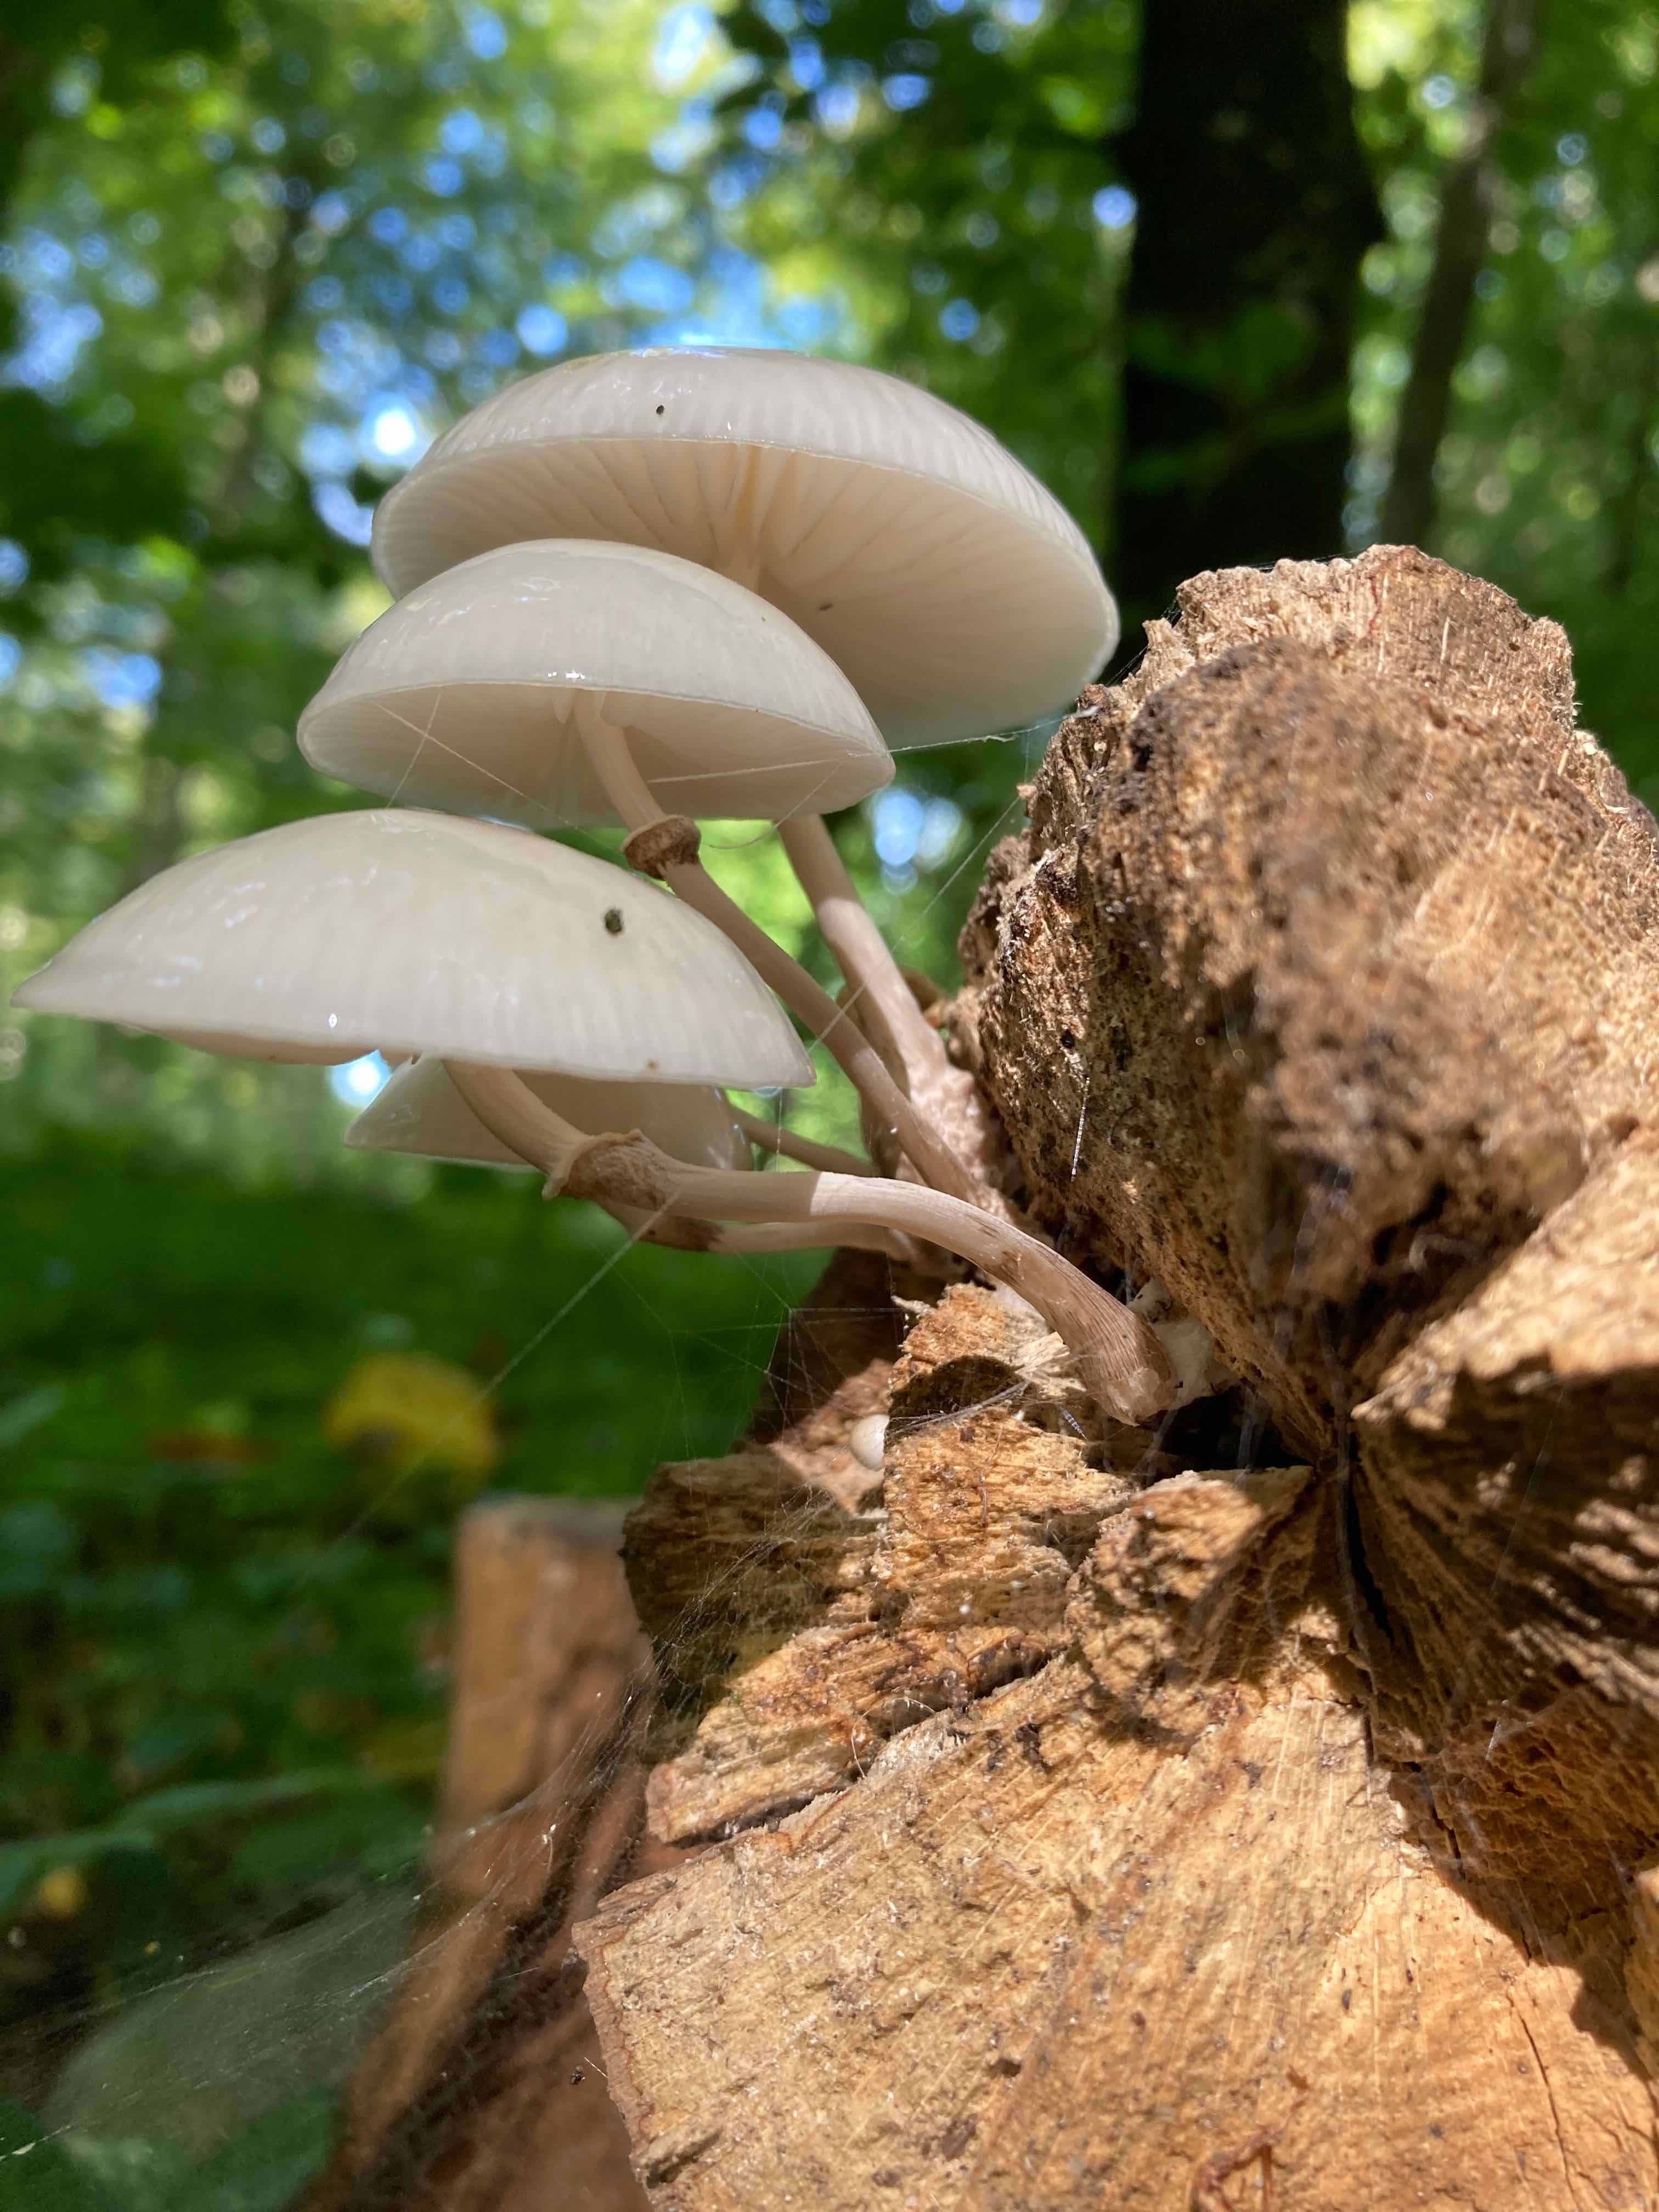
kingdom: Fungi
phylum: Basidiomycota
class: Agaricomycetes
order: Agaricales
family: Physalacriaceae
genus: Mucidula
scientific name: Mucidula mucida
